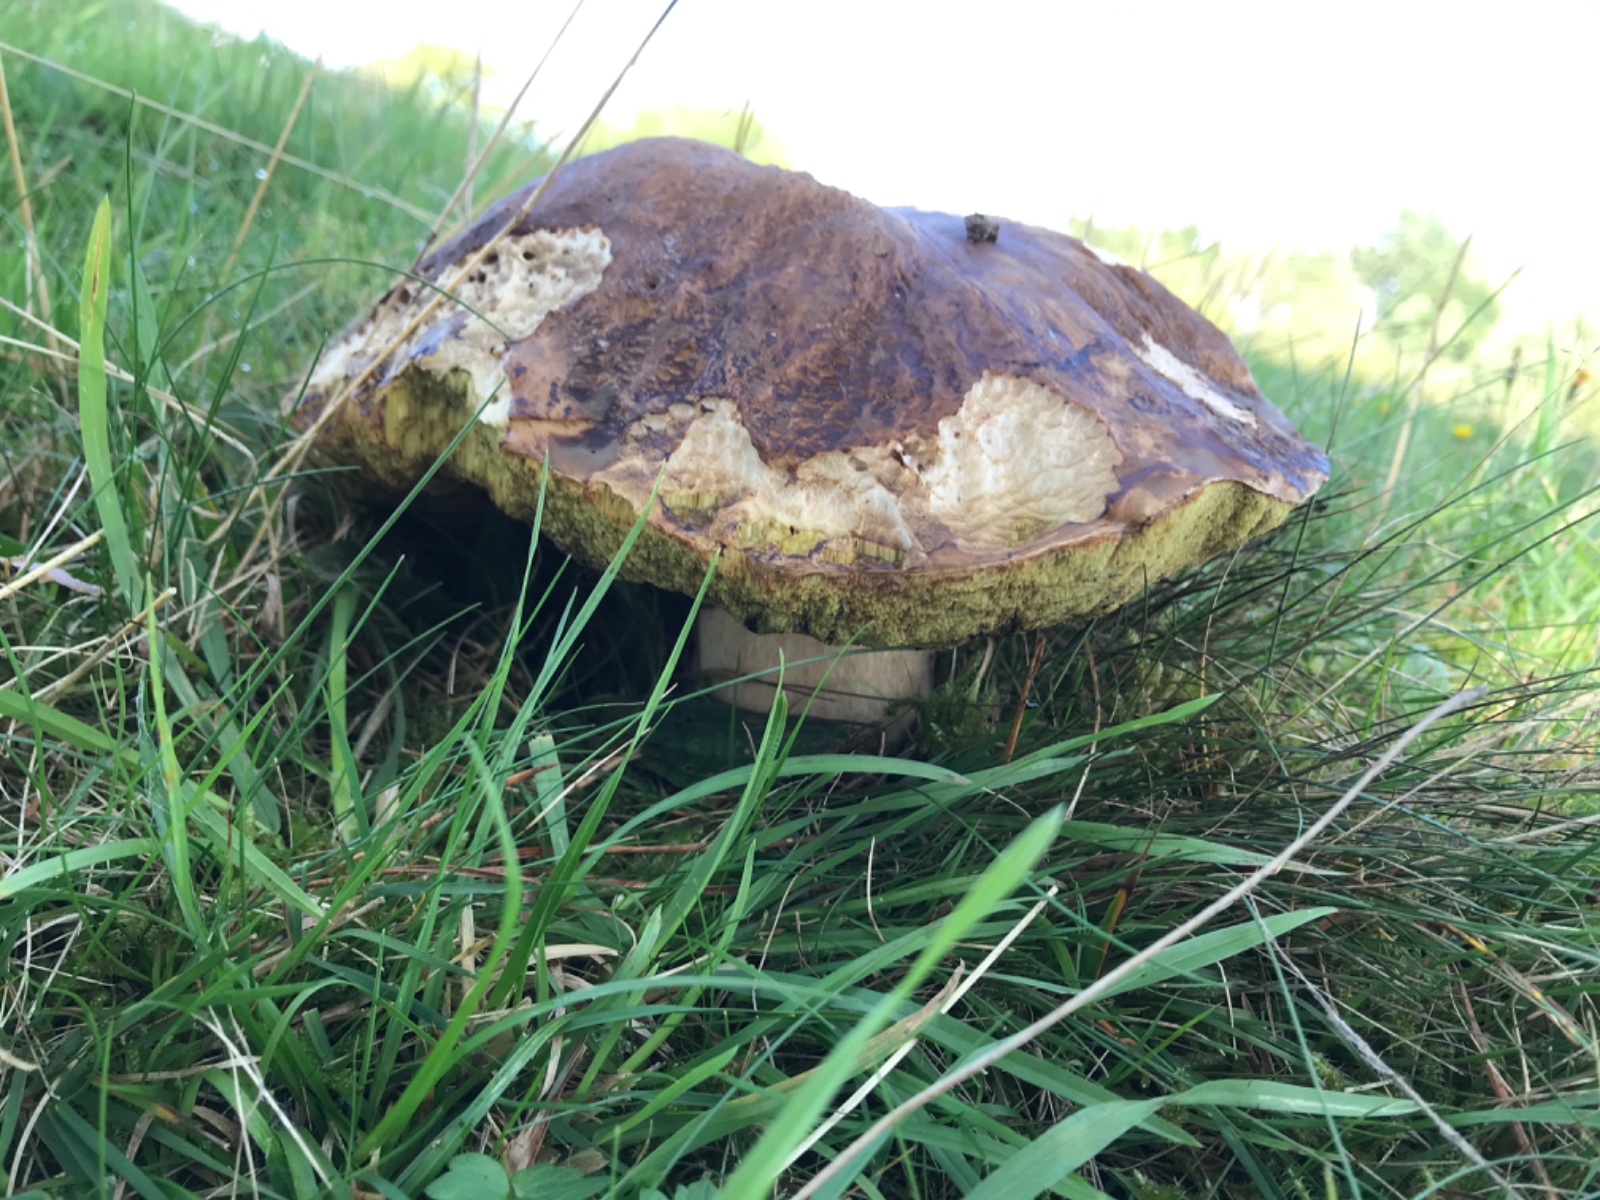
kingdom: Fungi
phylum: Basidiomycota
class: Agaricomycetes
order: Boletales
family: Boletaceae
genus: Boletus
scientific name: Boletus edulis
